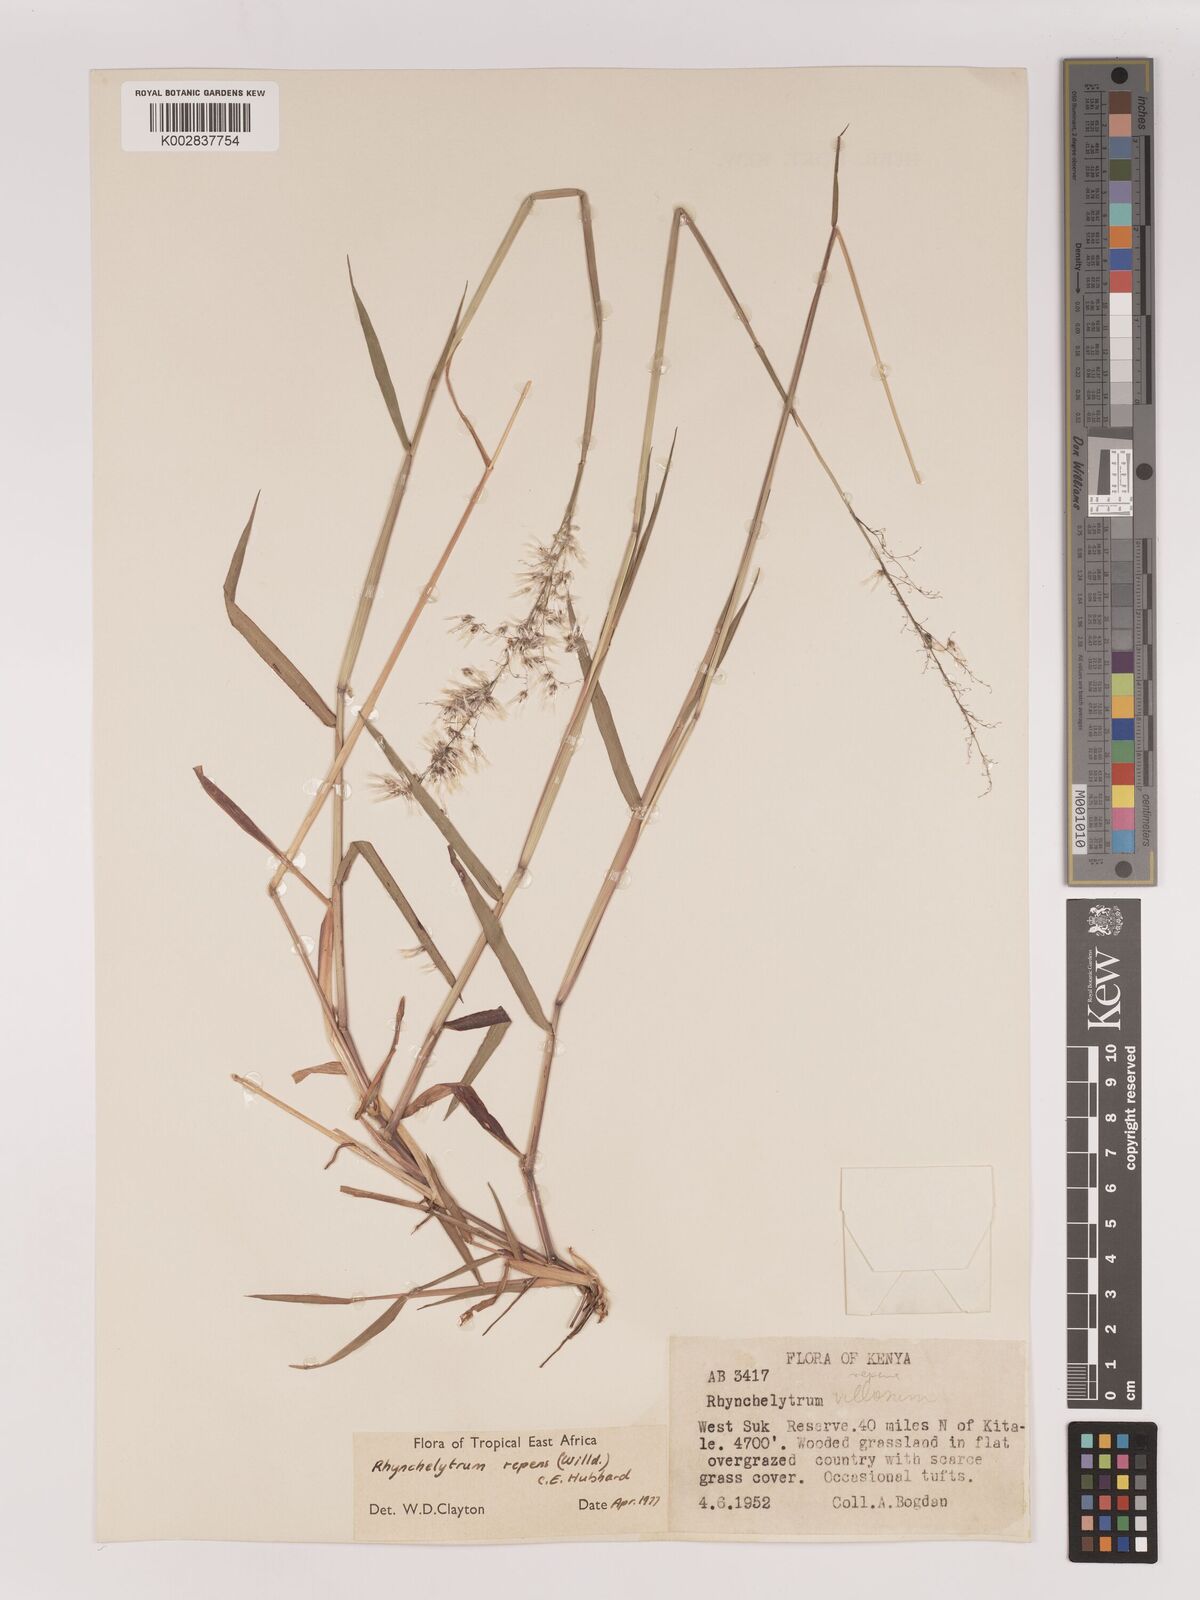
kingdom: Plantae
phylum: Tracheophyta
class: Liliopsida
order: Poales
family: Poaceae
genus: Melinis
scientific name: Melinis repens
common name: Rose natal grass
